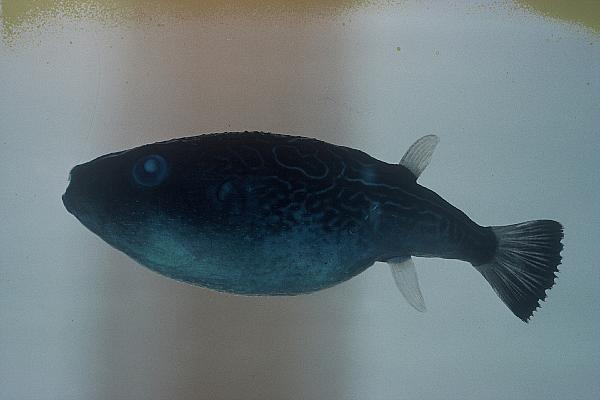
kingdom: Animalia
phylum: Chordata
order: Tetraodontiformes
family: Tetraodontidae
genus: Pelagocephalus
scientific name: Pelagocephalus marki
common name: Rippled blaasop
